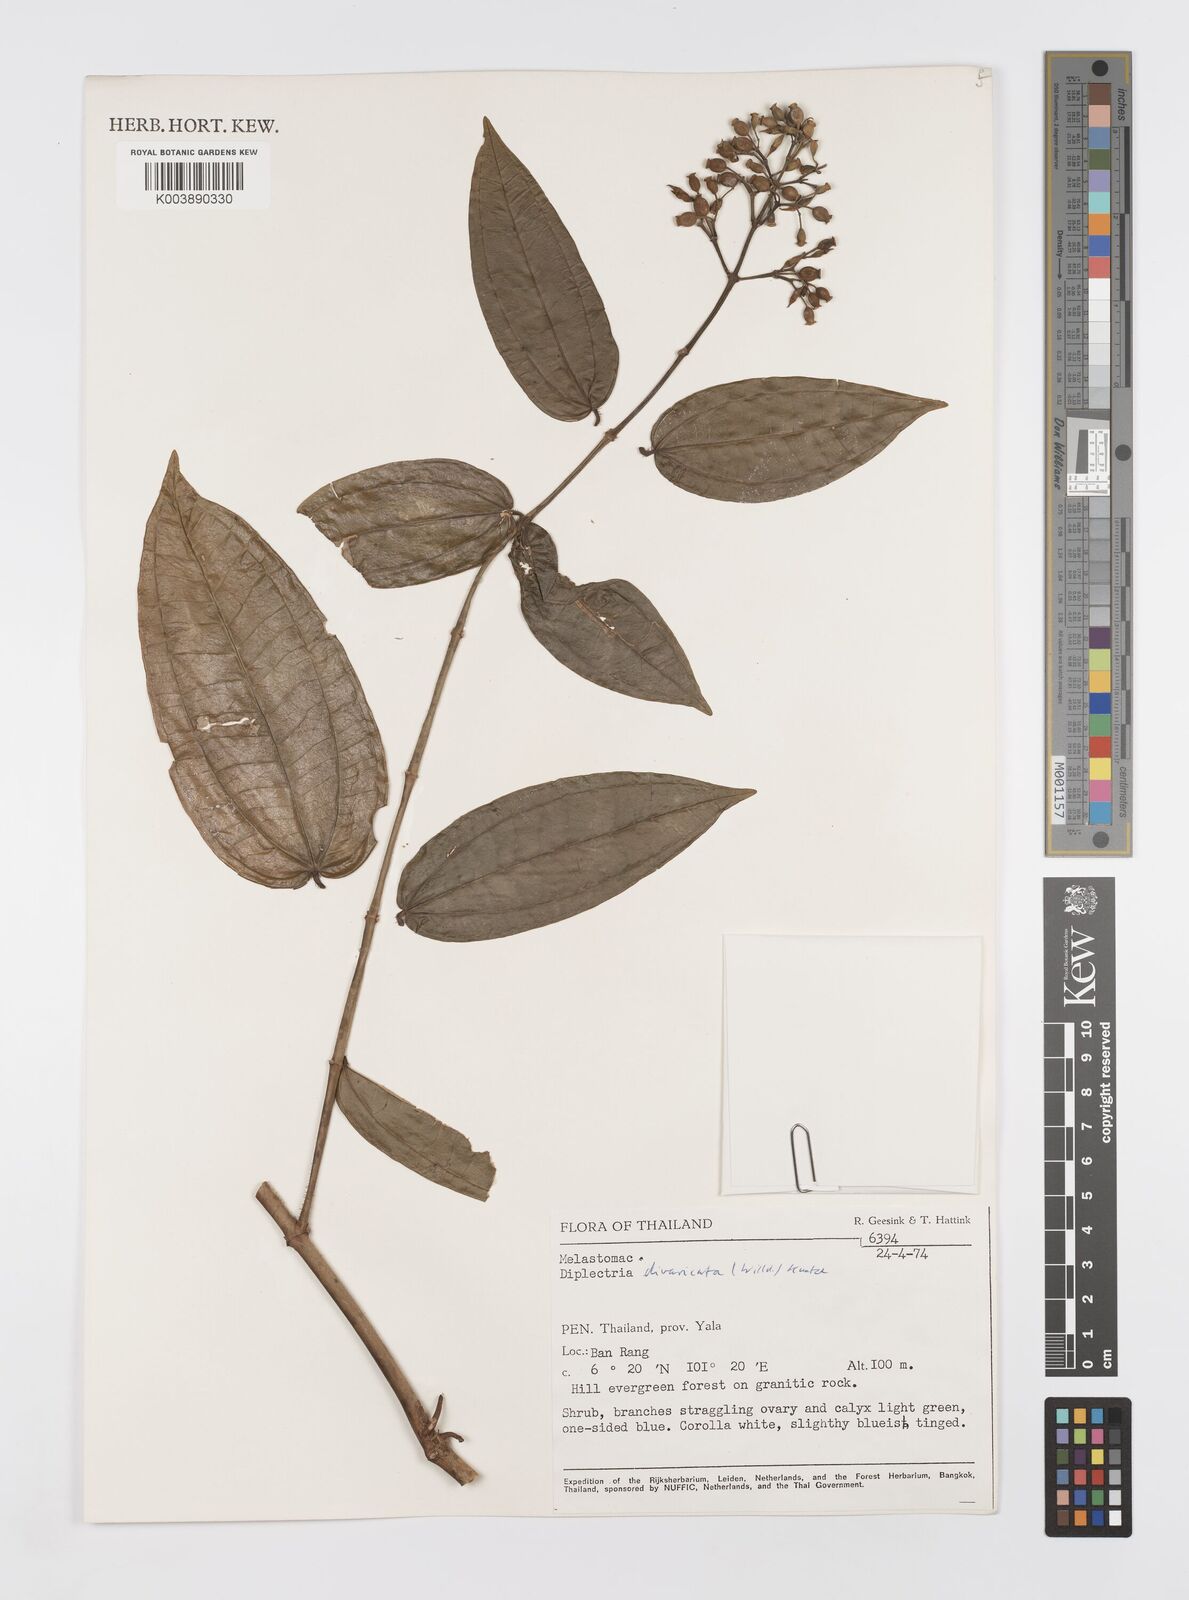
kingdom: Plantae
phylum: Tracheophyta
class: Magnoliopsida
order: Myrtales
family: Melastomataceae
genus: Diplectria
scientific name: Diplectria divaricata
